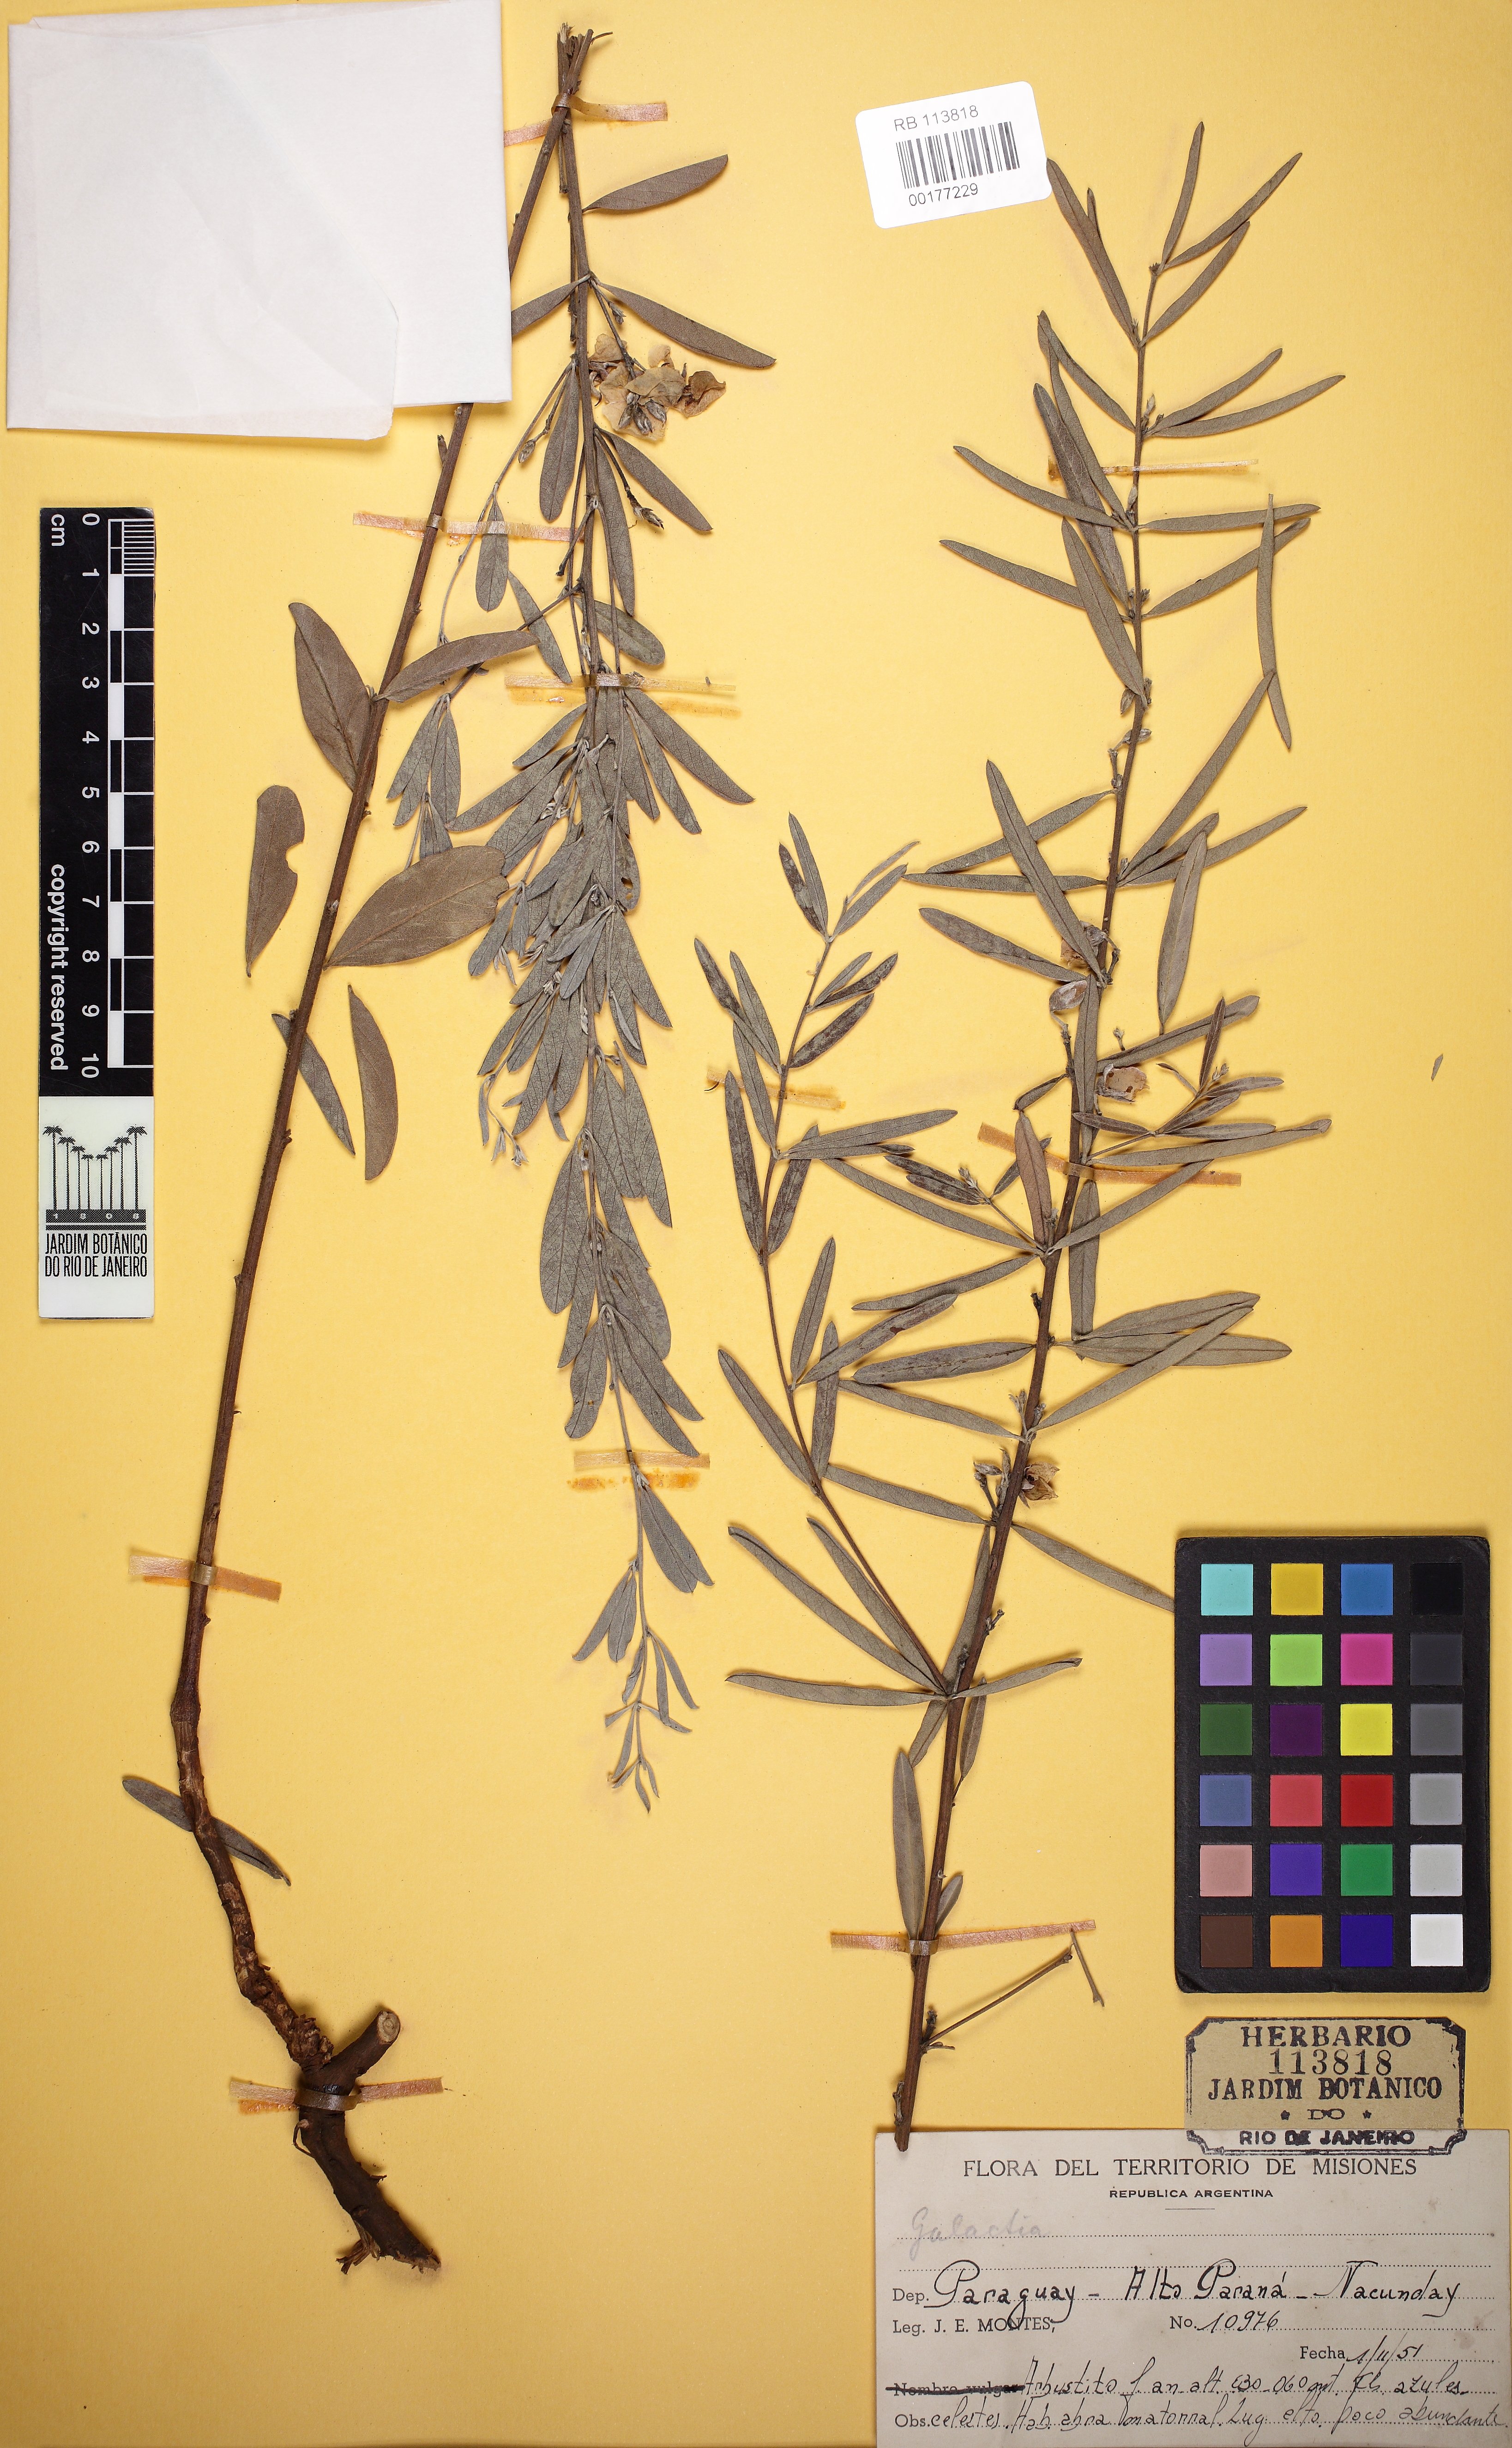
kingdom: Plantae
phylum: Tracheophyta
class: Magnoliopsida
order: Fabales
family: Fabaceae
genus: Collaea
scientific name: Collaea stenophylla
